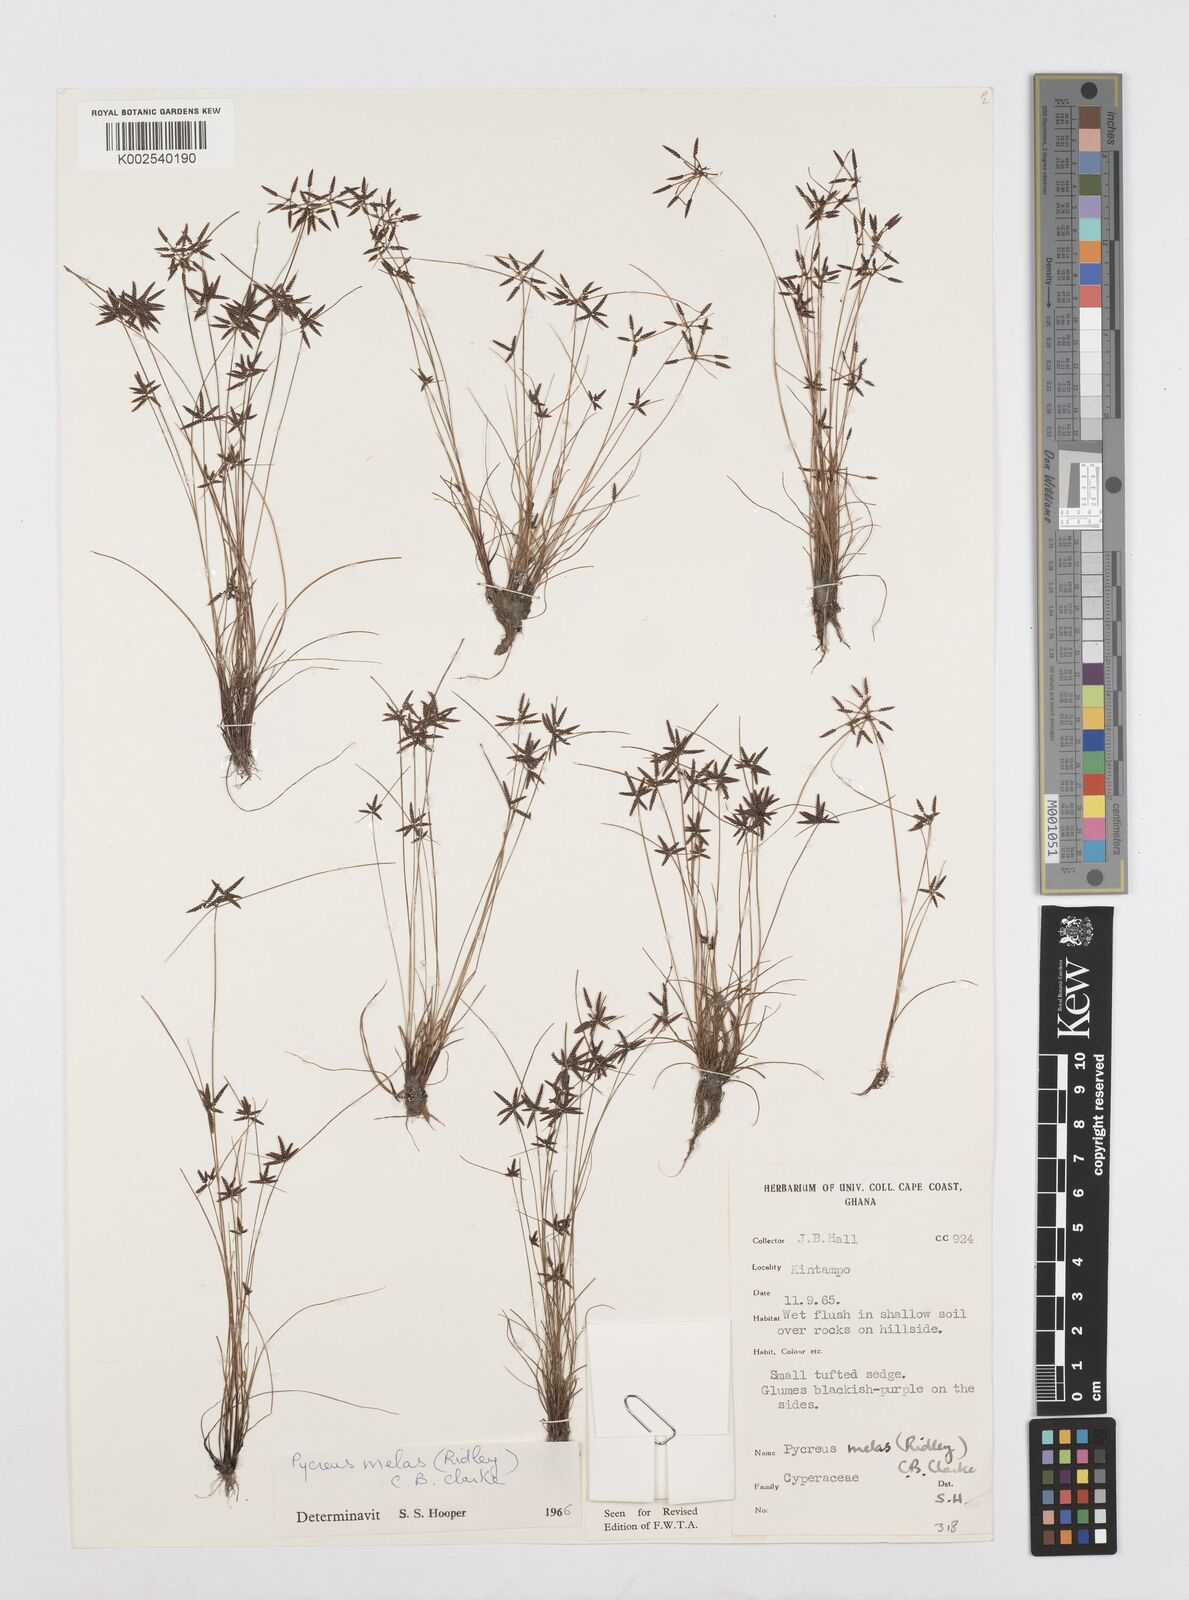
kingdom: Plantae
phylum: Tracheophyta
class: Liliopsida
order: Poales
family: Cyperaceae
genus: Cyperus
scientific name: Cyperus melas
